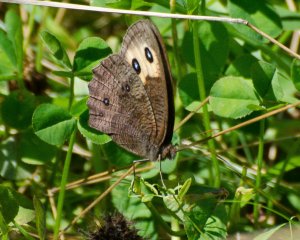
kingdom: Animalia
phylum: Arthropoda
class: Insecta
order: Lepidoptera
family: Nymphalidae
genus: Cercyonis
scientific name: Cercyonis pegala
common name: Common Wood-Nymph
